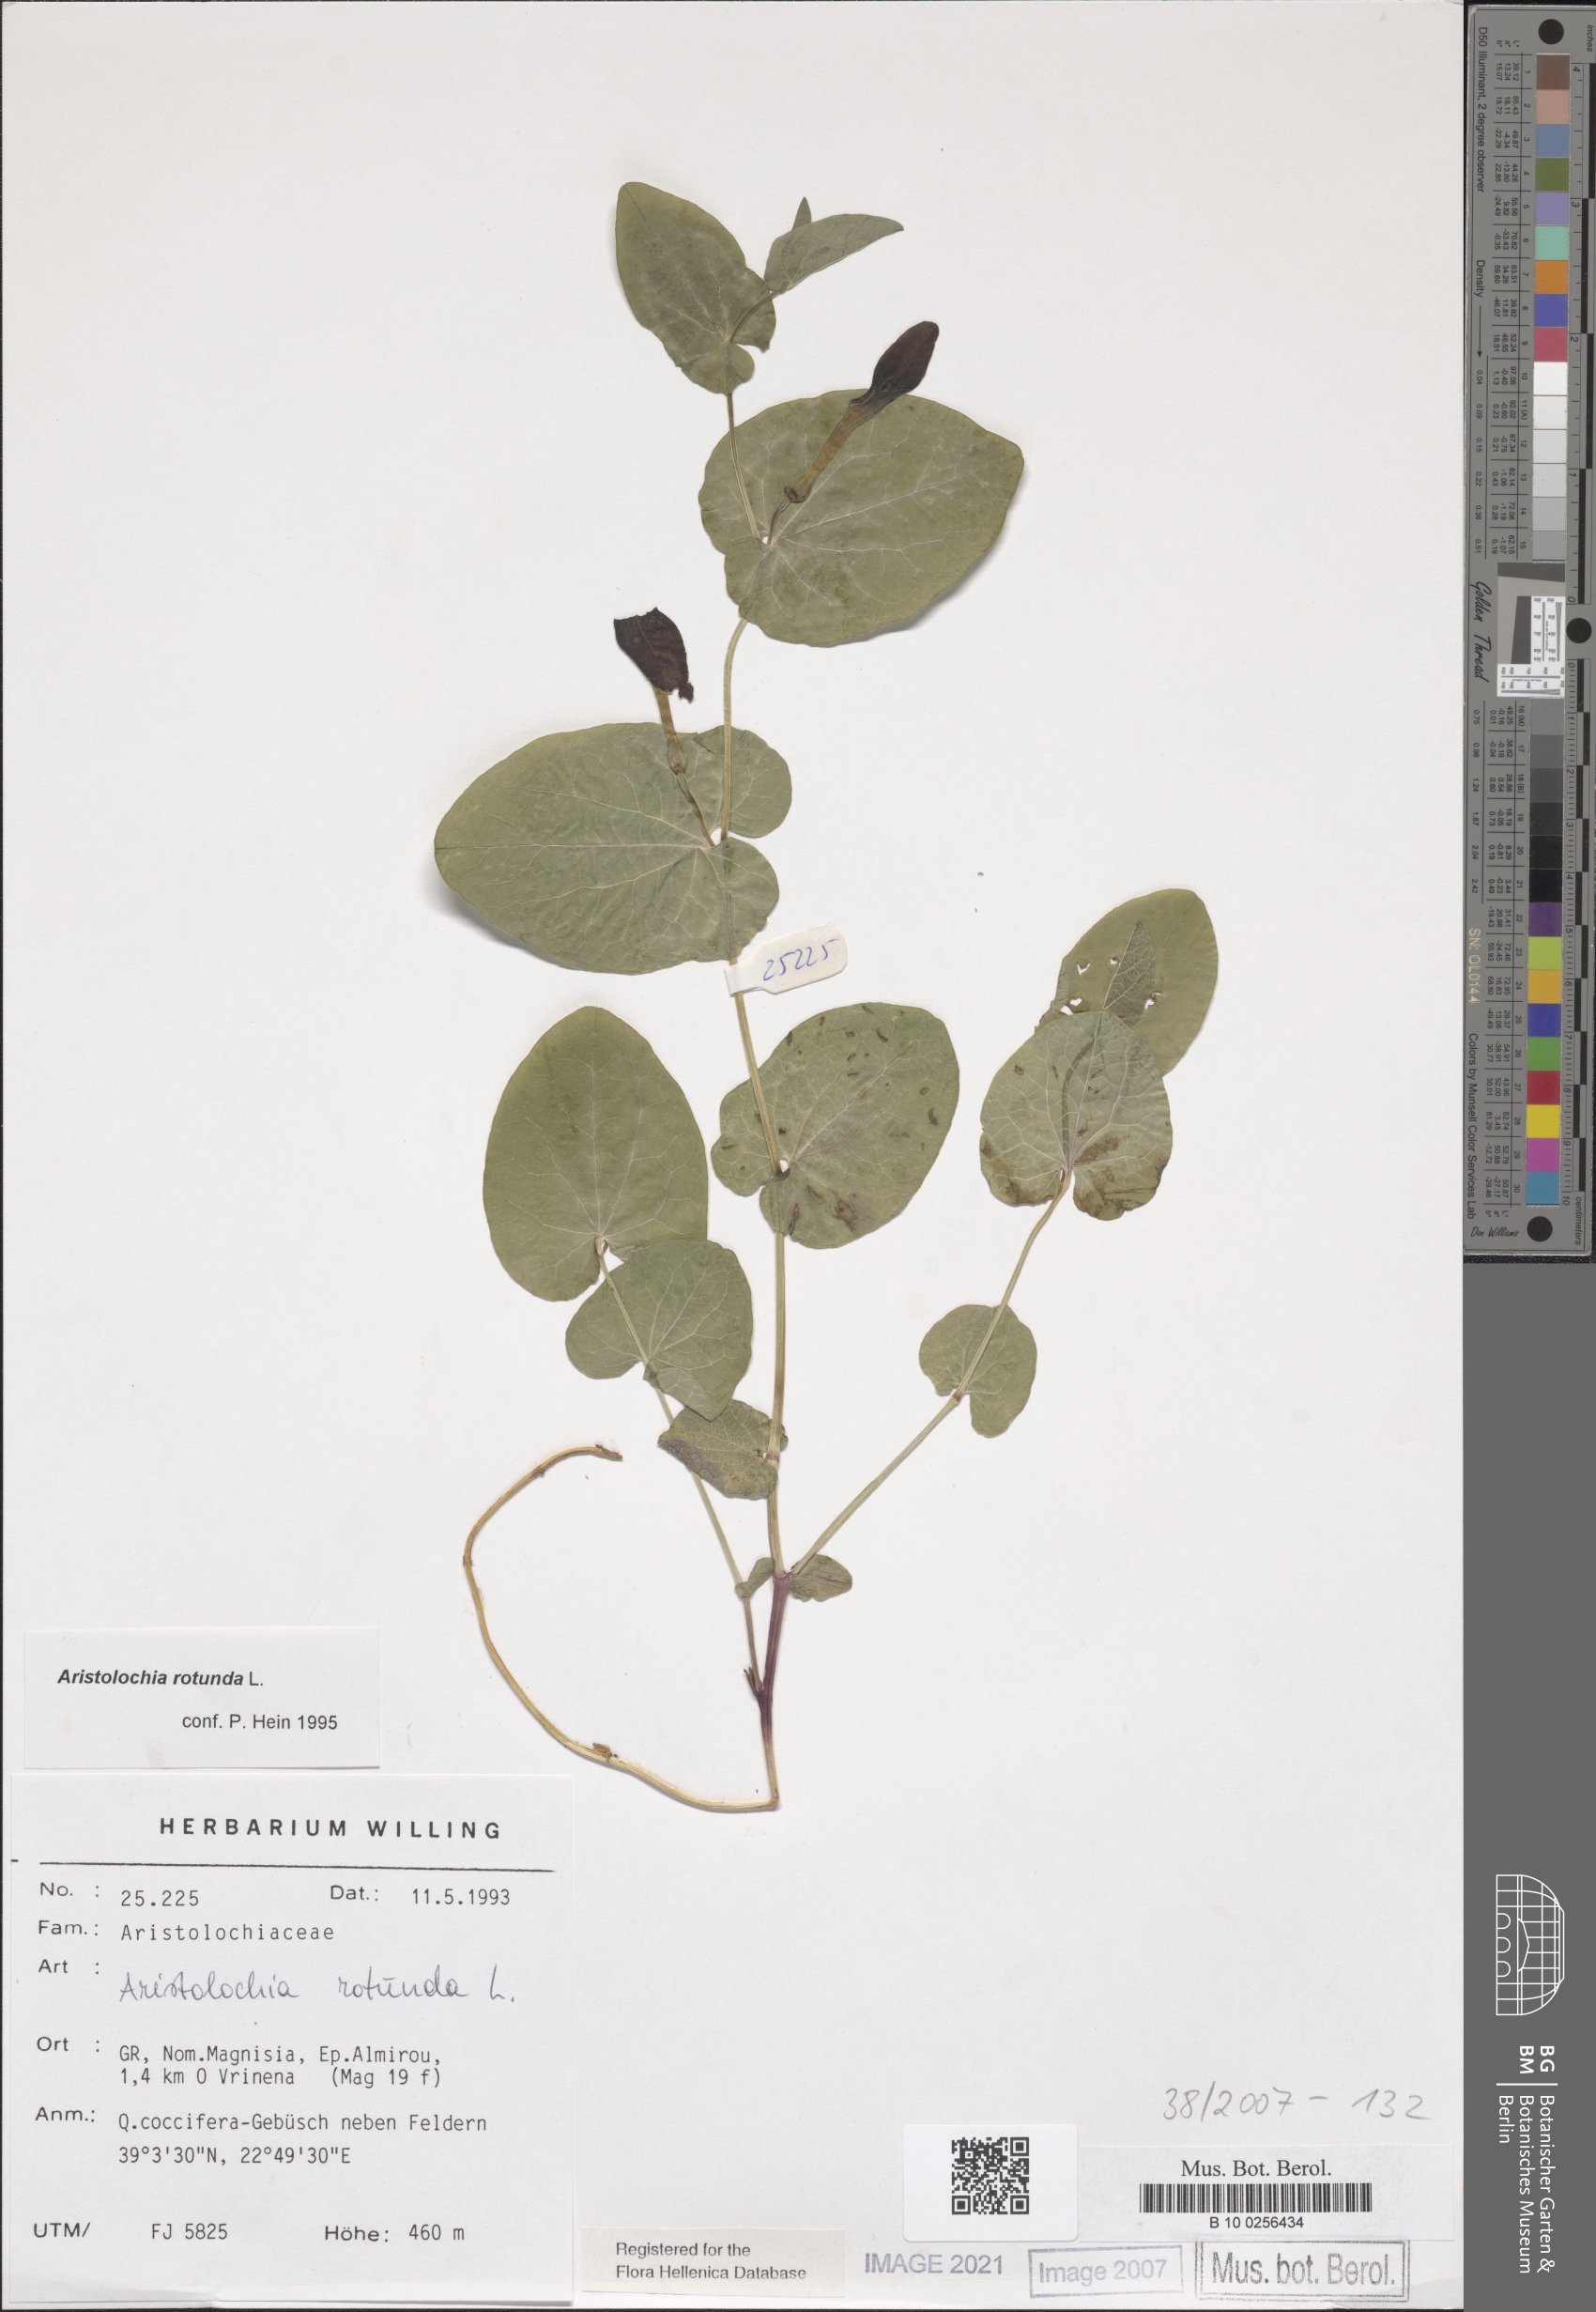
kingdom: Plantae
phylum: Tracheophyta
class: Magnoliopsida
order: Piperales
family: Aristolochiaceae
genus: Aristolochia
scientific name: Aristolochia rotunda
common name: Smearwort
